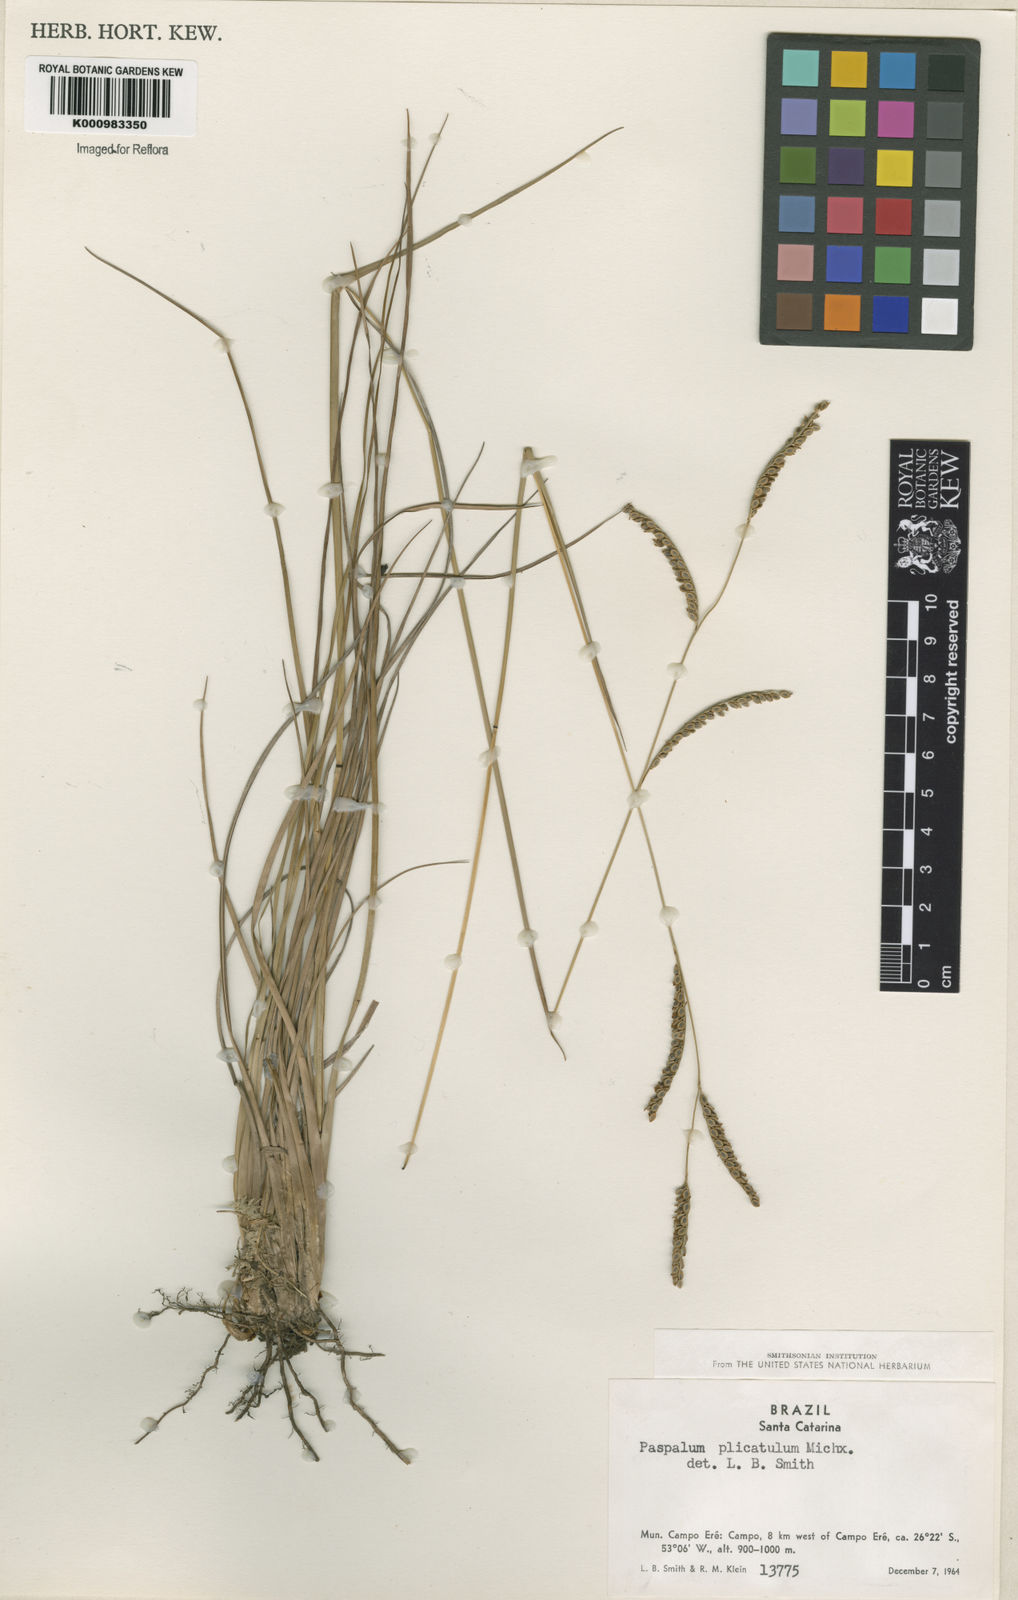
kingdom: Plantae
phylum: Tracheophyta
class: Liliopsida
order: Poales
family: Poaceae
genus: Paspalum
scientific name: Paspalum plicatulum
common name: Top paspalum
